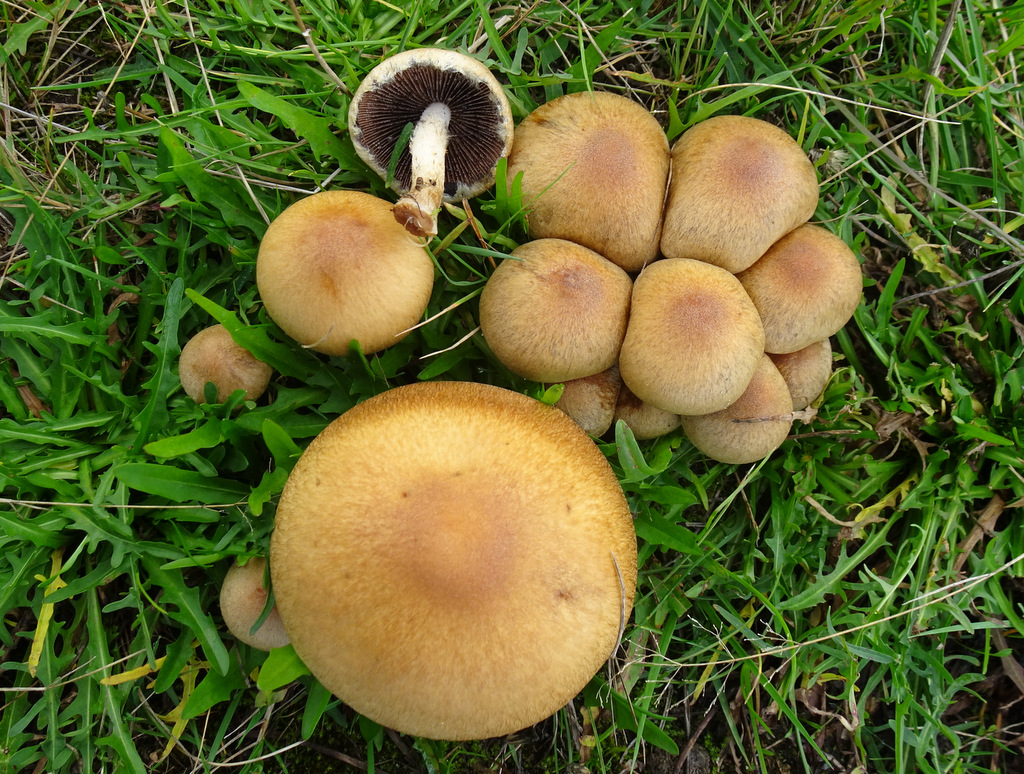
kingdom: Fungi
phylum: Basidiomycota
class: Agaricomycetes
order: Agaricales
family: Psathyrellaceae
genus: Lacrymaria
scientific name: Lacrymaria lacrymabunda
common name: grædende mørkhat
